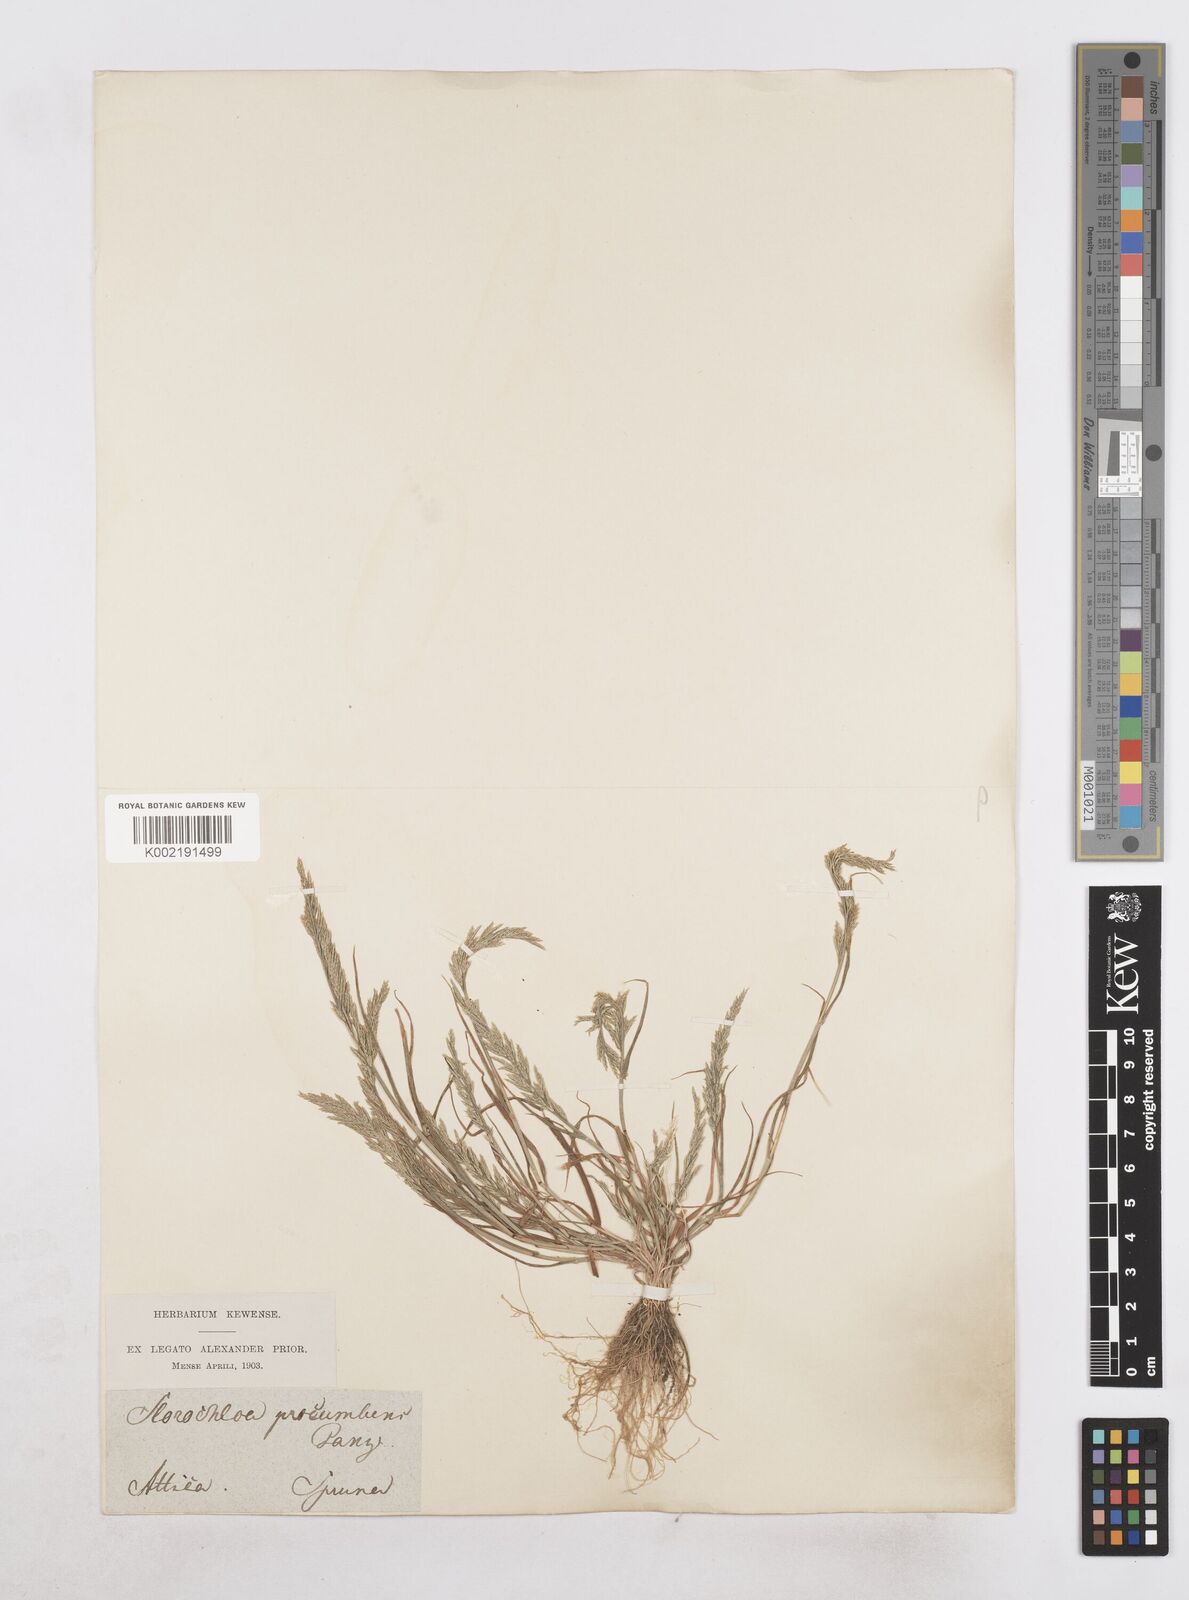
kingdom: Plantae
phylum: Tracheophyta
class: Liliopsida
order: Poales
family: Poaceae
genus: Catapodium
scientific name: Catapodium rigidum
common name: Fern-grass
